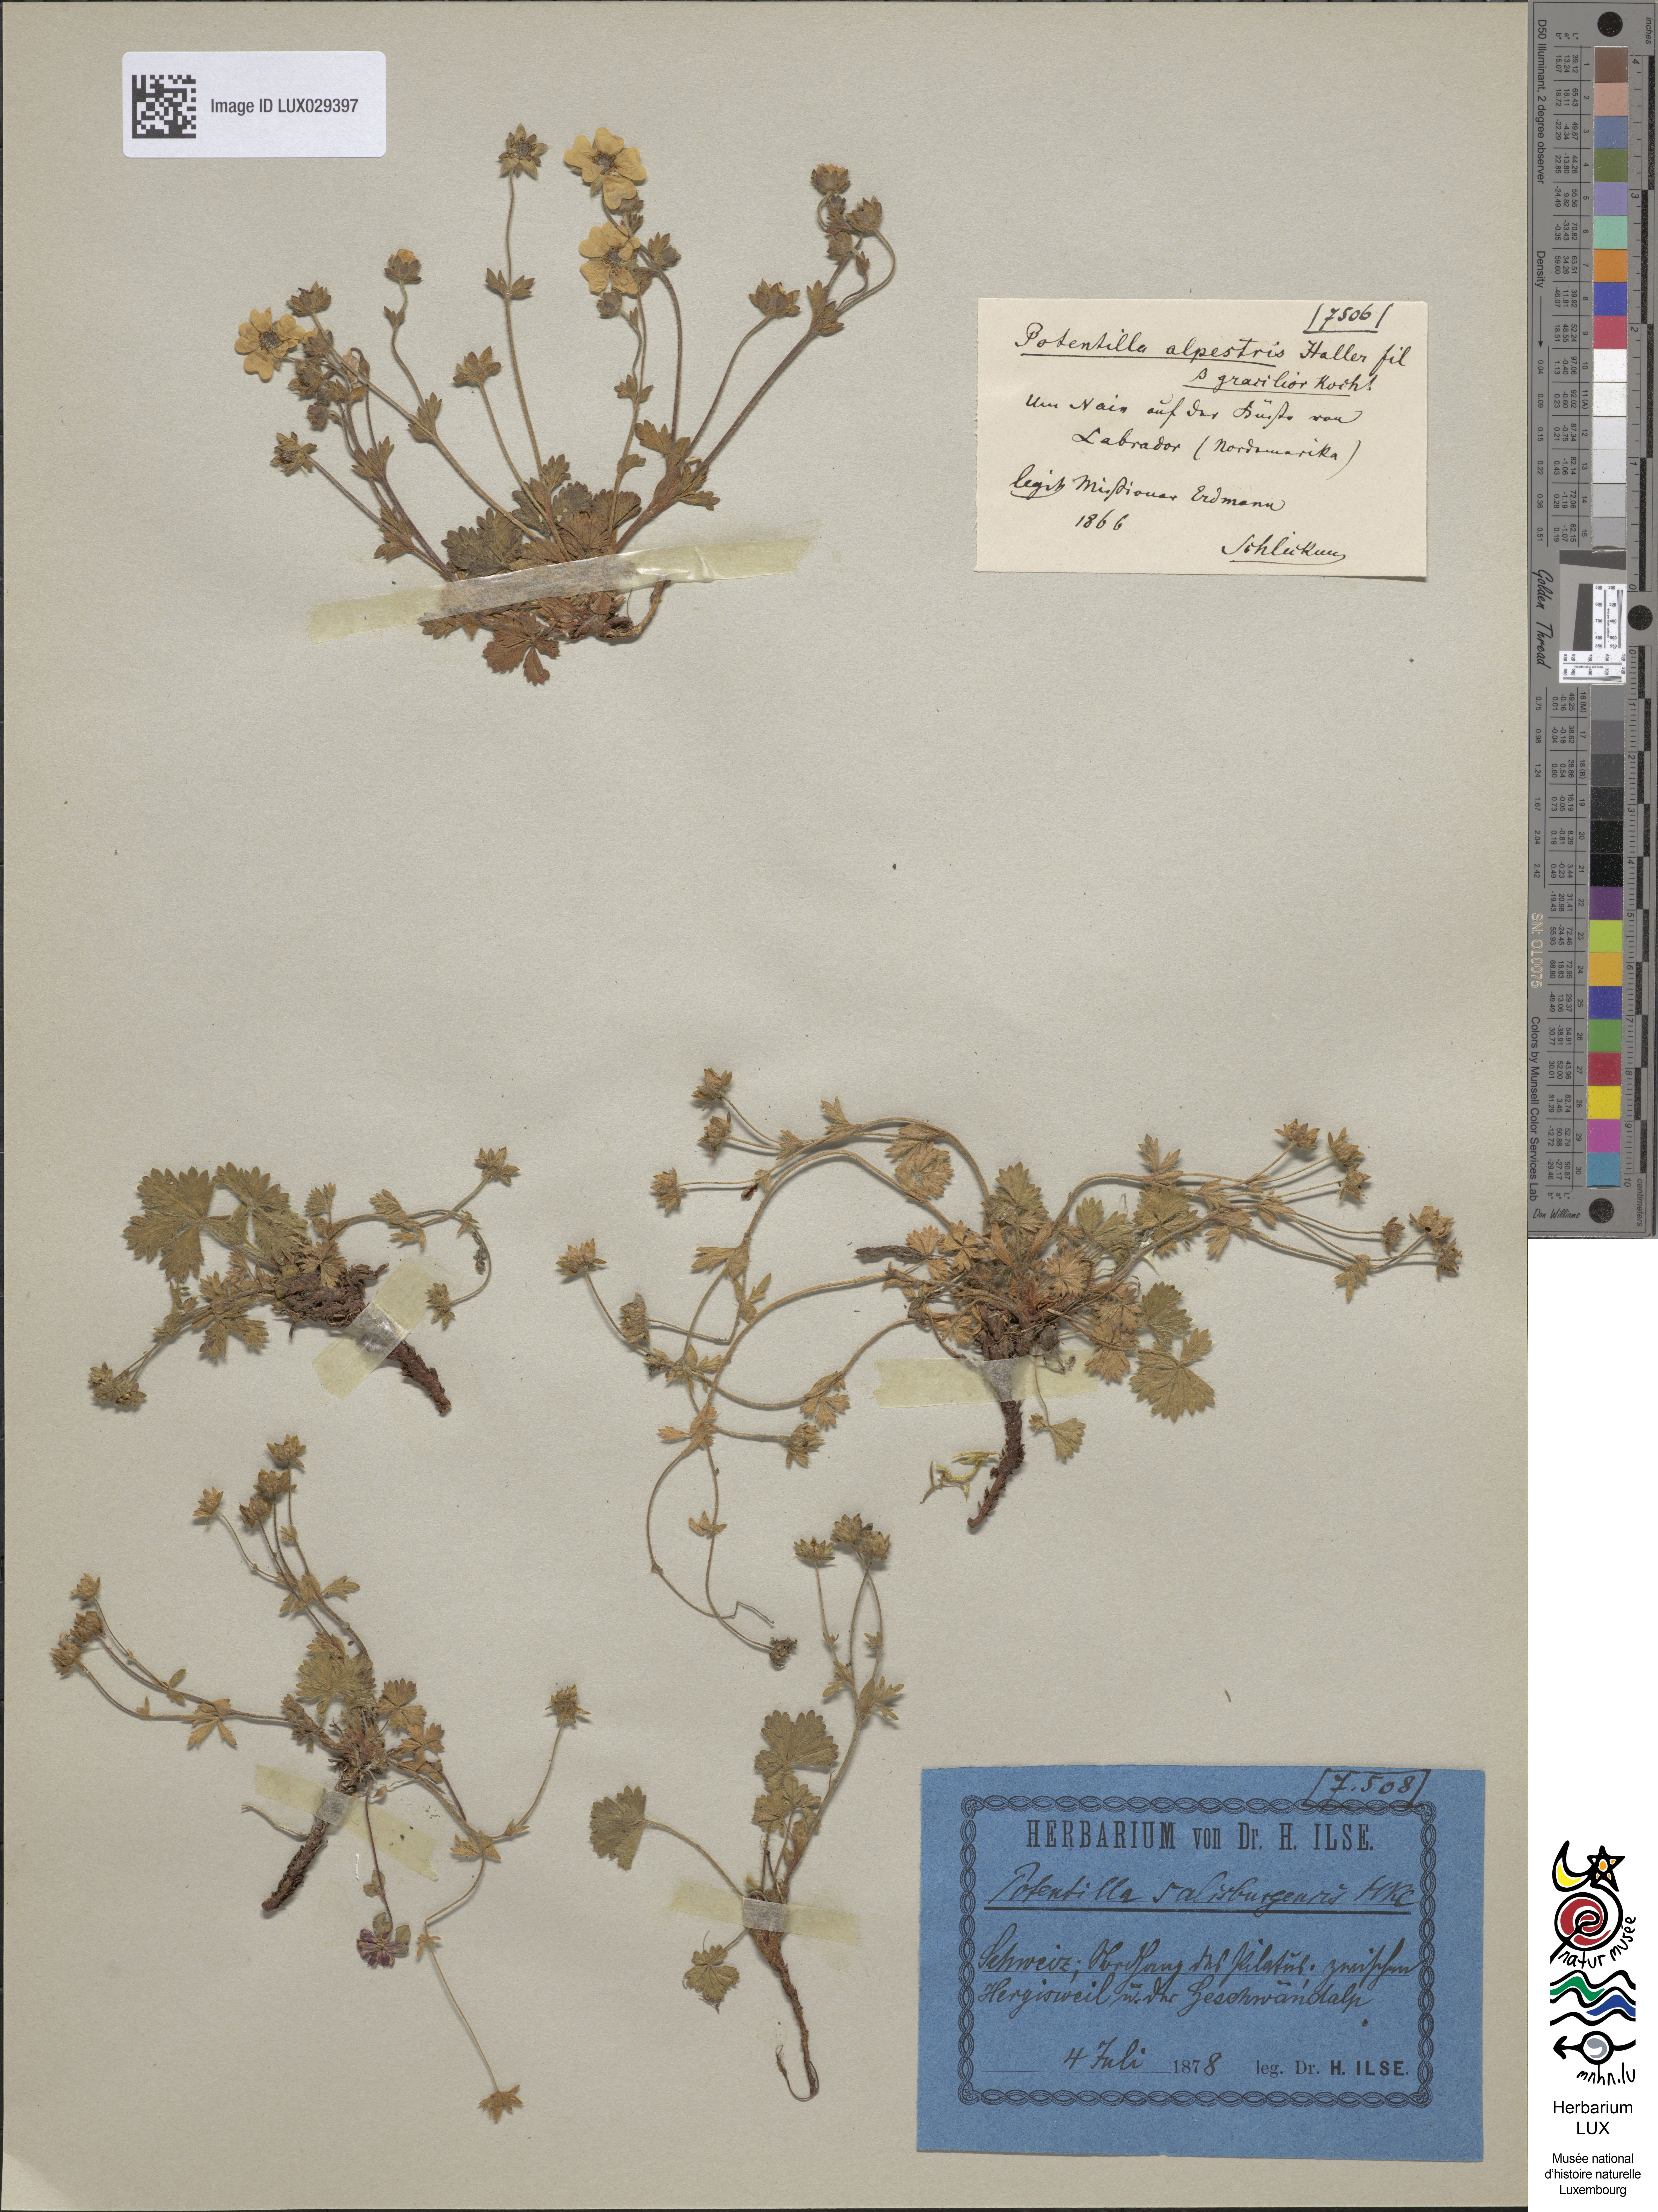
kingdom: Plantae
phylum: Tracheophyta
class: Magnoliopsida
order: Rosales
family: Rosaceae
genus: Potentilla
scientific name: Potentilla crantzii
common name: Alpine cinquefoil
